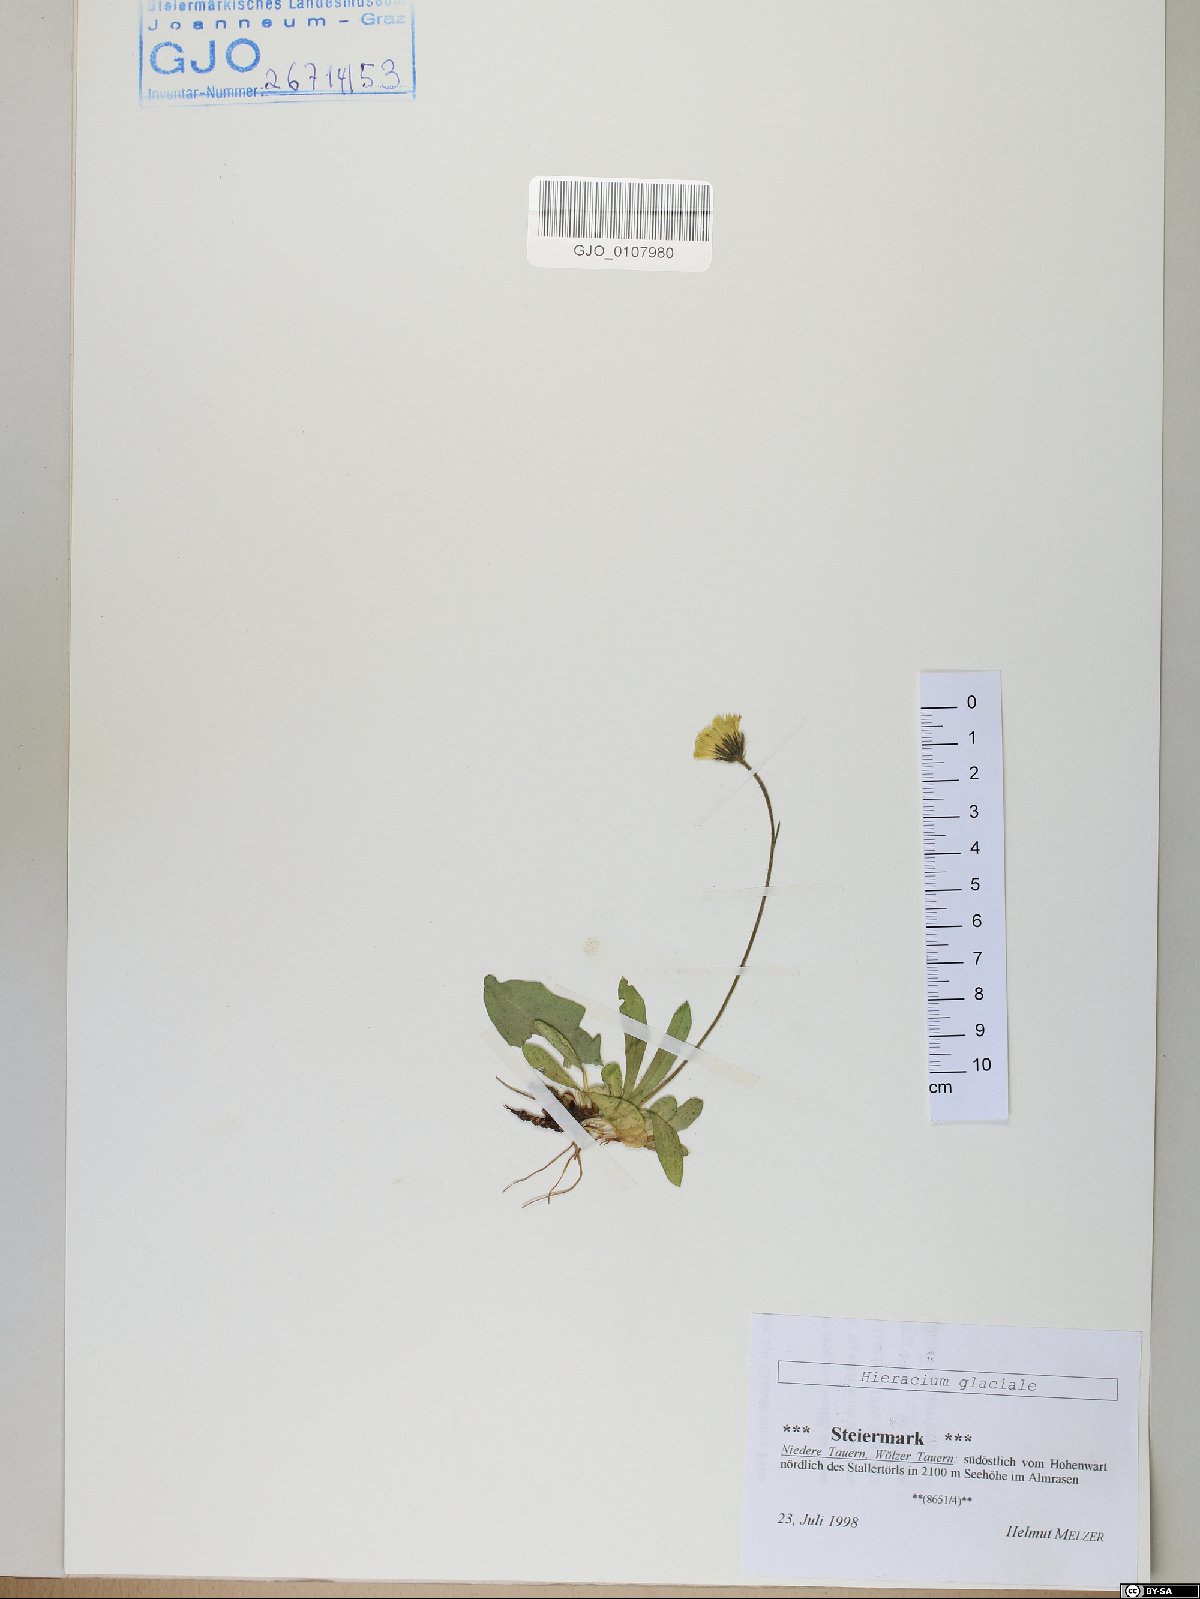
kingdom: Plantae
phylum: Tracheophyta
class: Magnoliopsida
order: Asterales
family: Asteraceae
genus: Pilosella
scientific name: Pilosella glacialis
